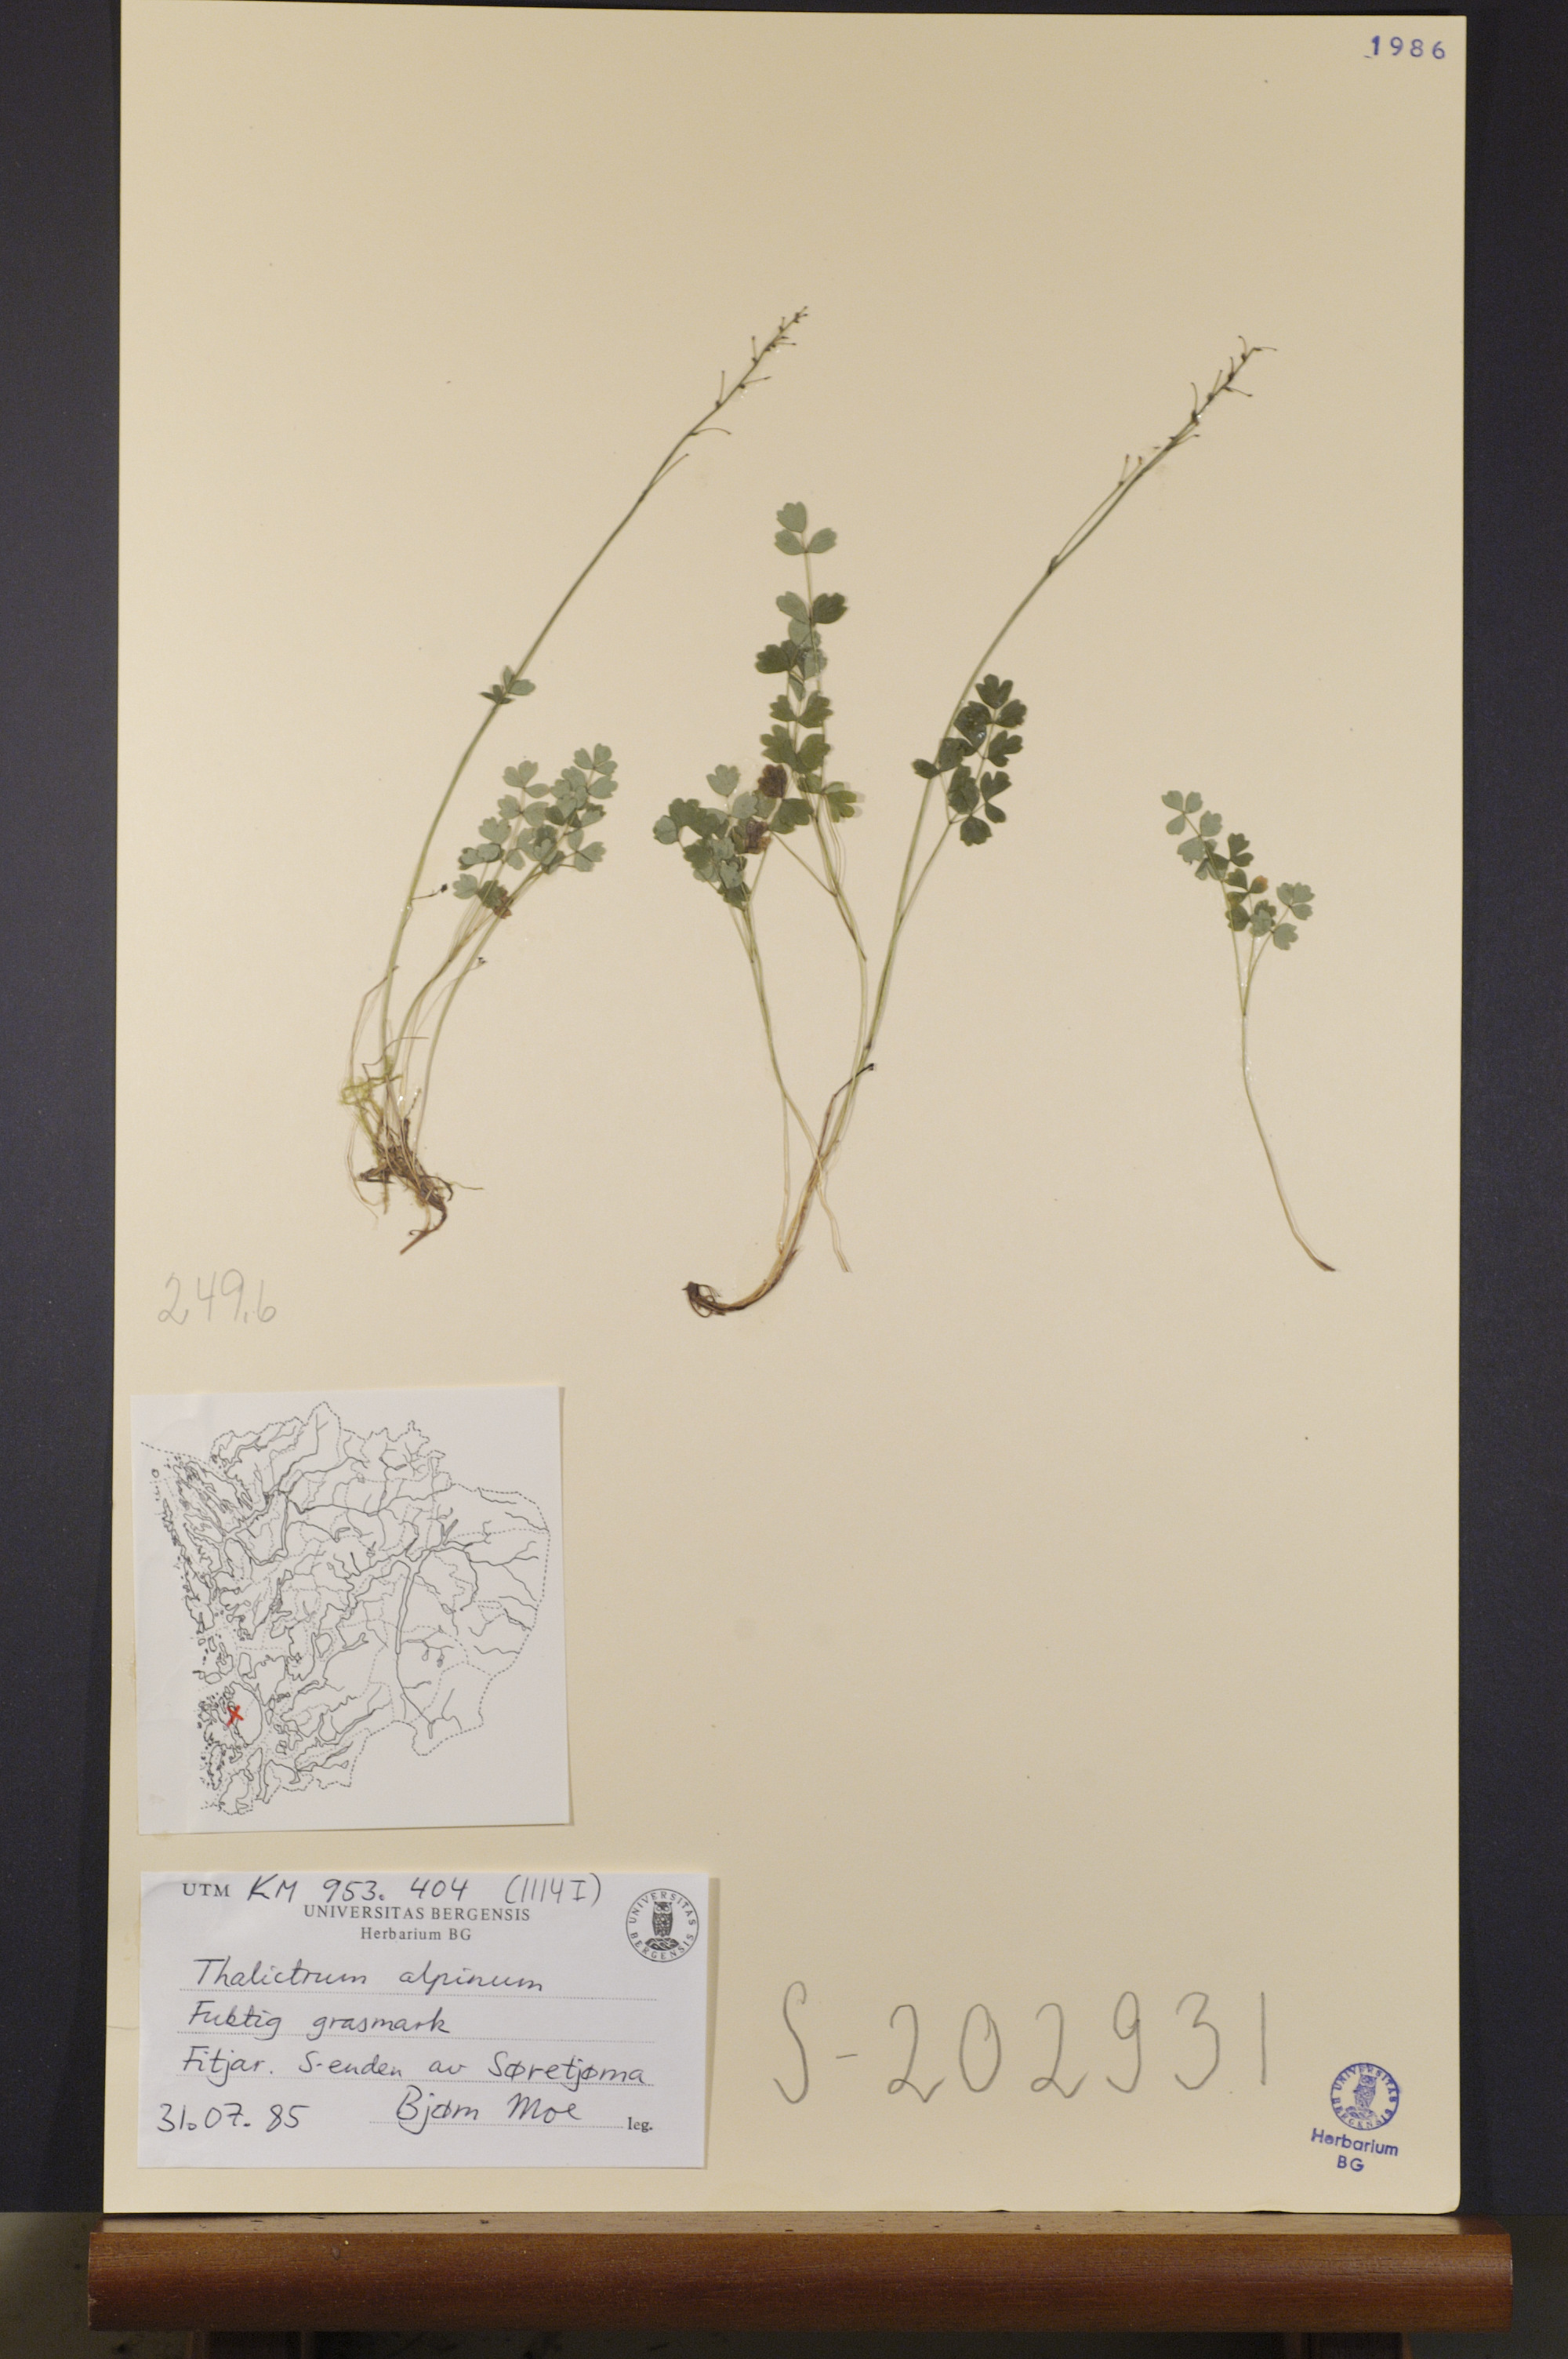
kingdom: Plantae
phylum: Tracheophyta
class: Magnoliopsida
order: Ranunculales
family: Ranunculaceae
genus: Thalictrum
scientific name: Thalictrum alpinum
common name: Alpine meadow-rue
